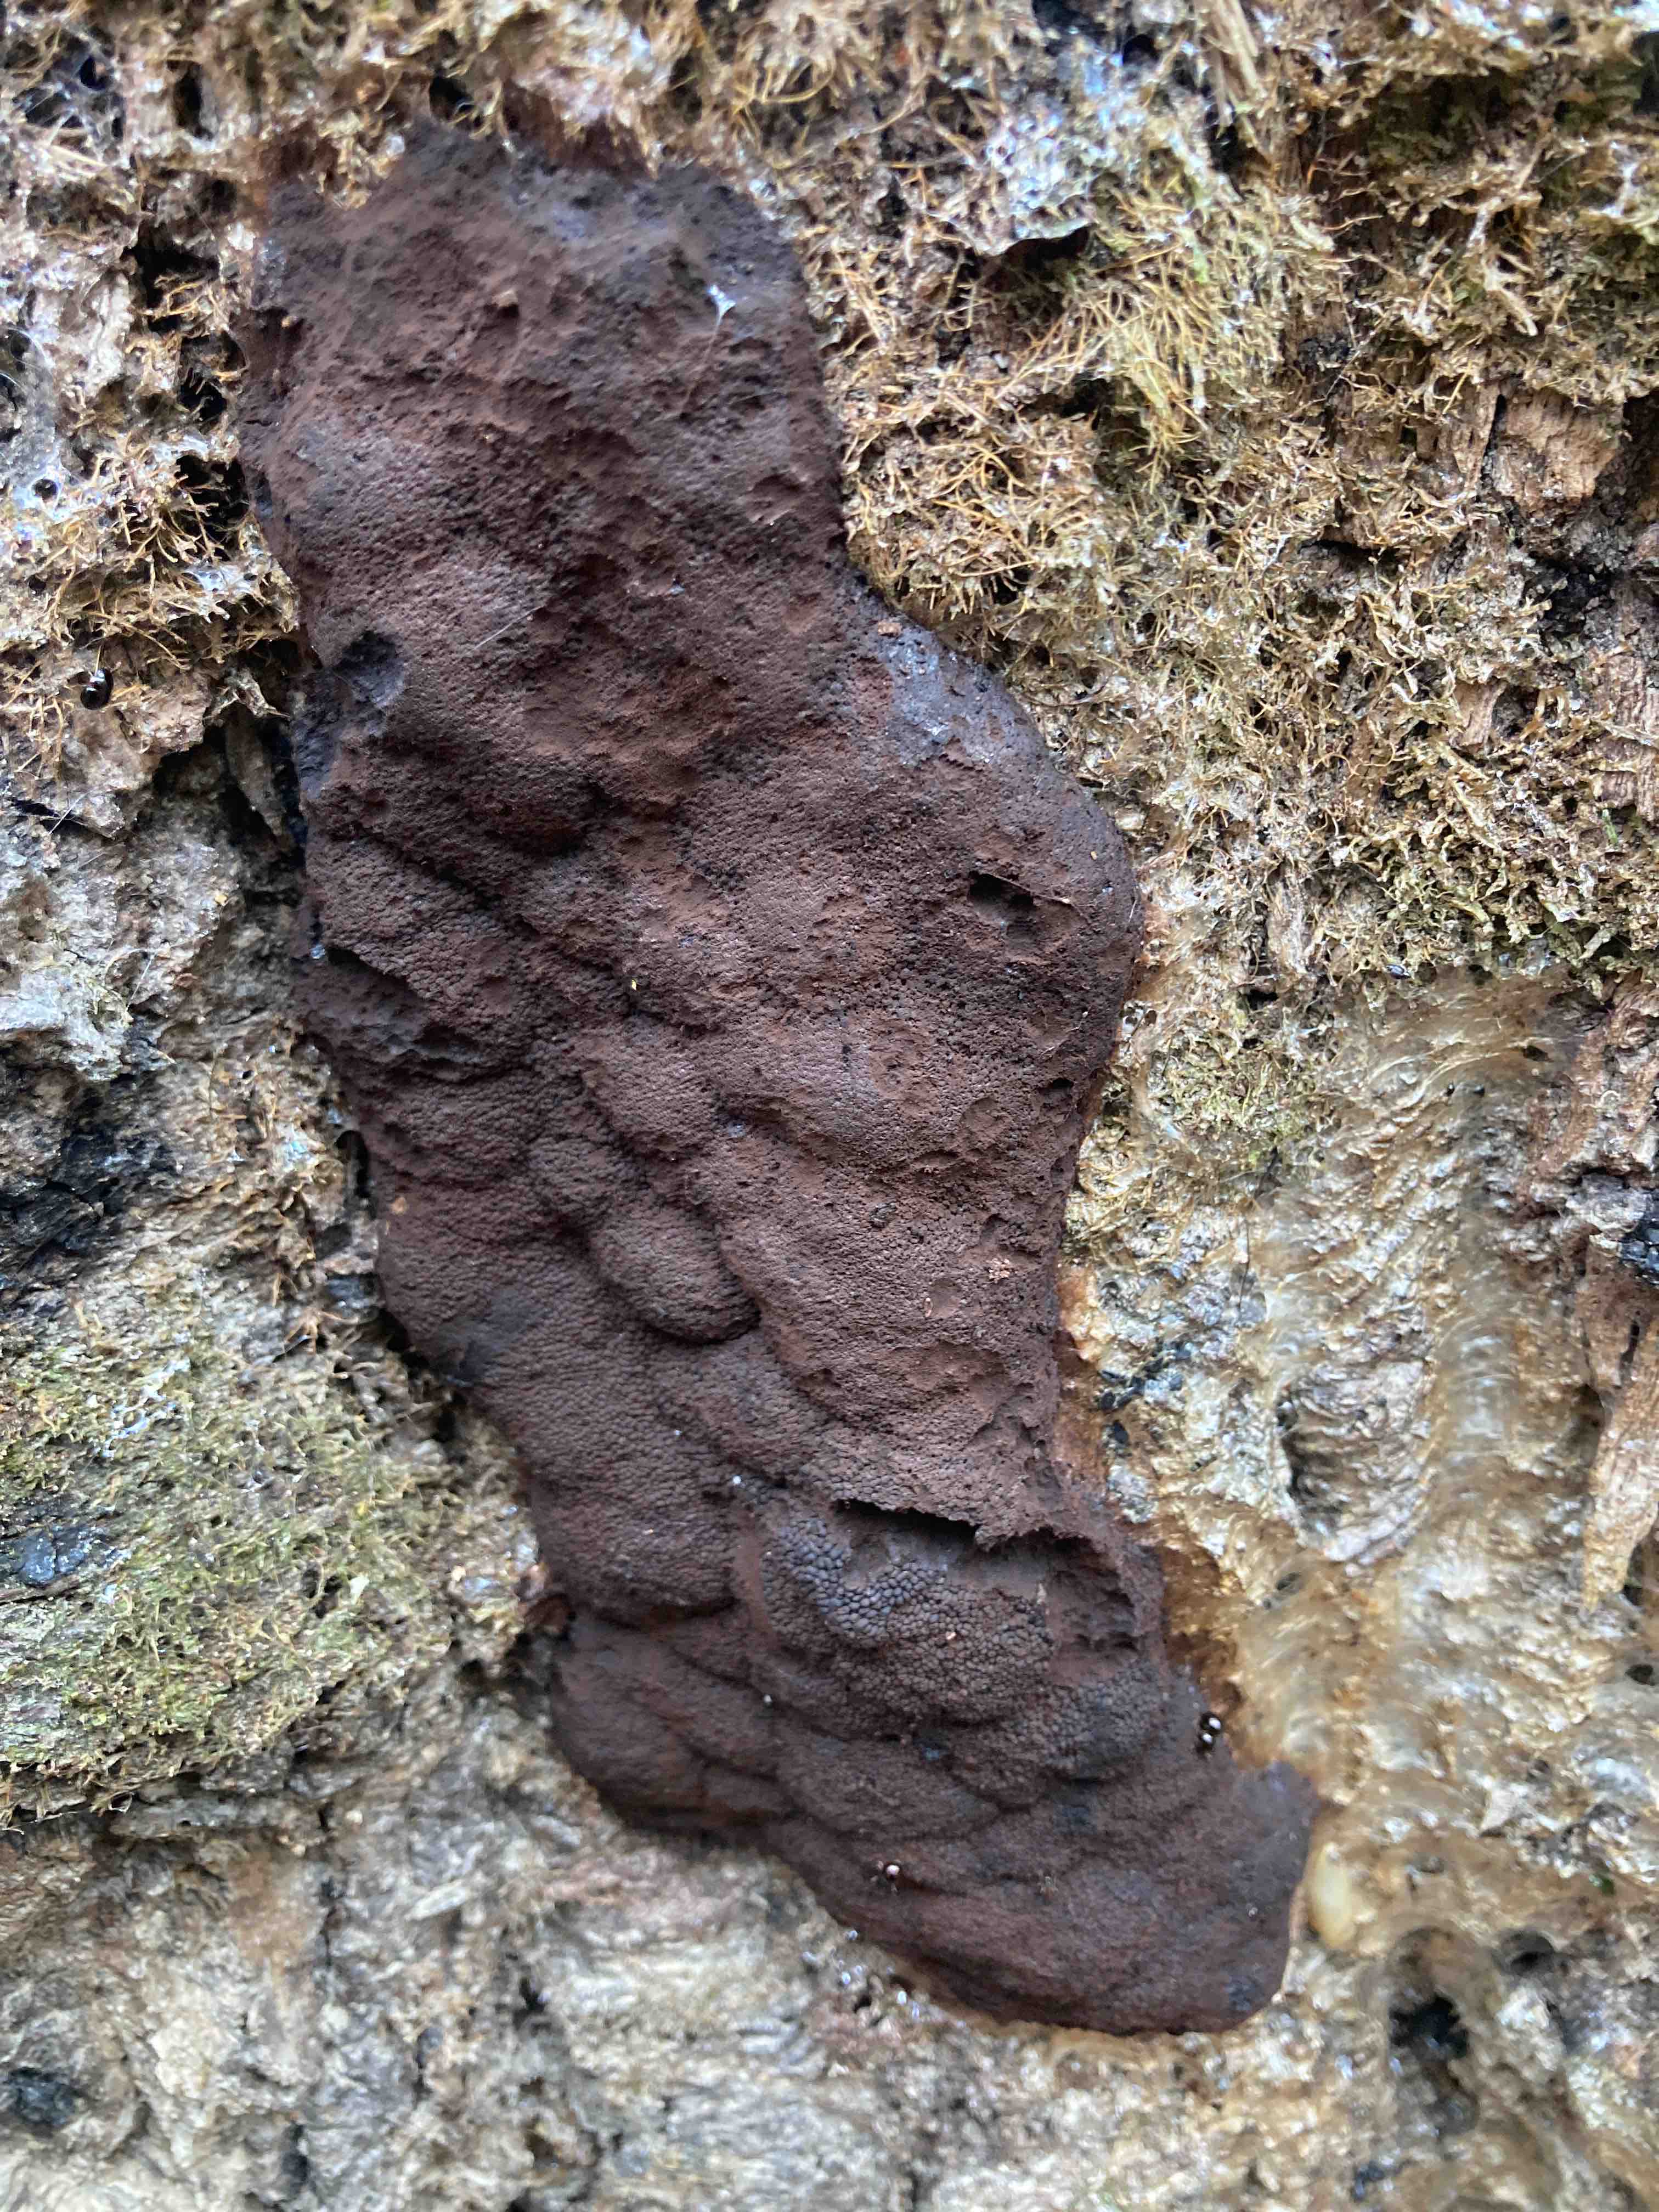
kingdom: Protozoa
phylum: Mycetozoa
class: Myxomycetes
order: Stemonitidales
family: Stemonitidaceae
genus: Brefeldia
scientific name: Brefeldia maxima
